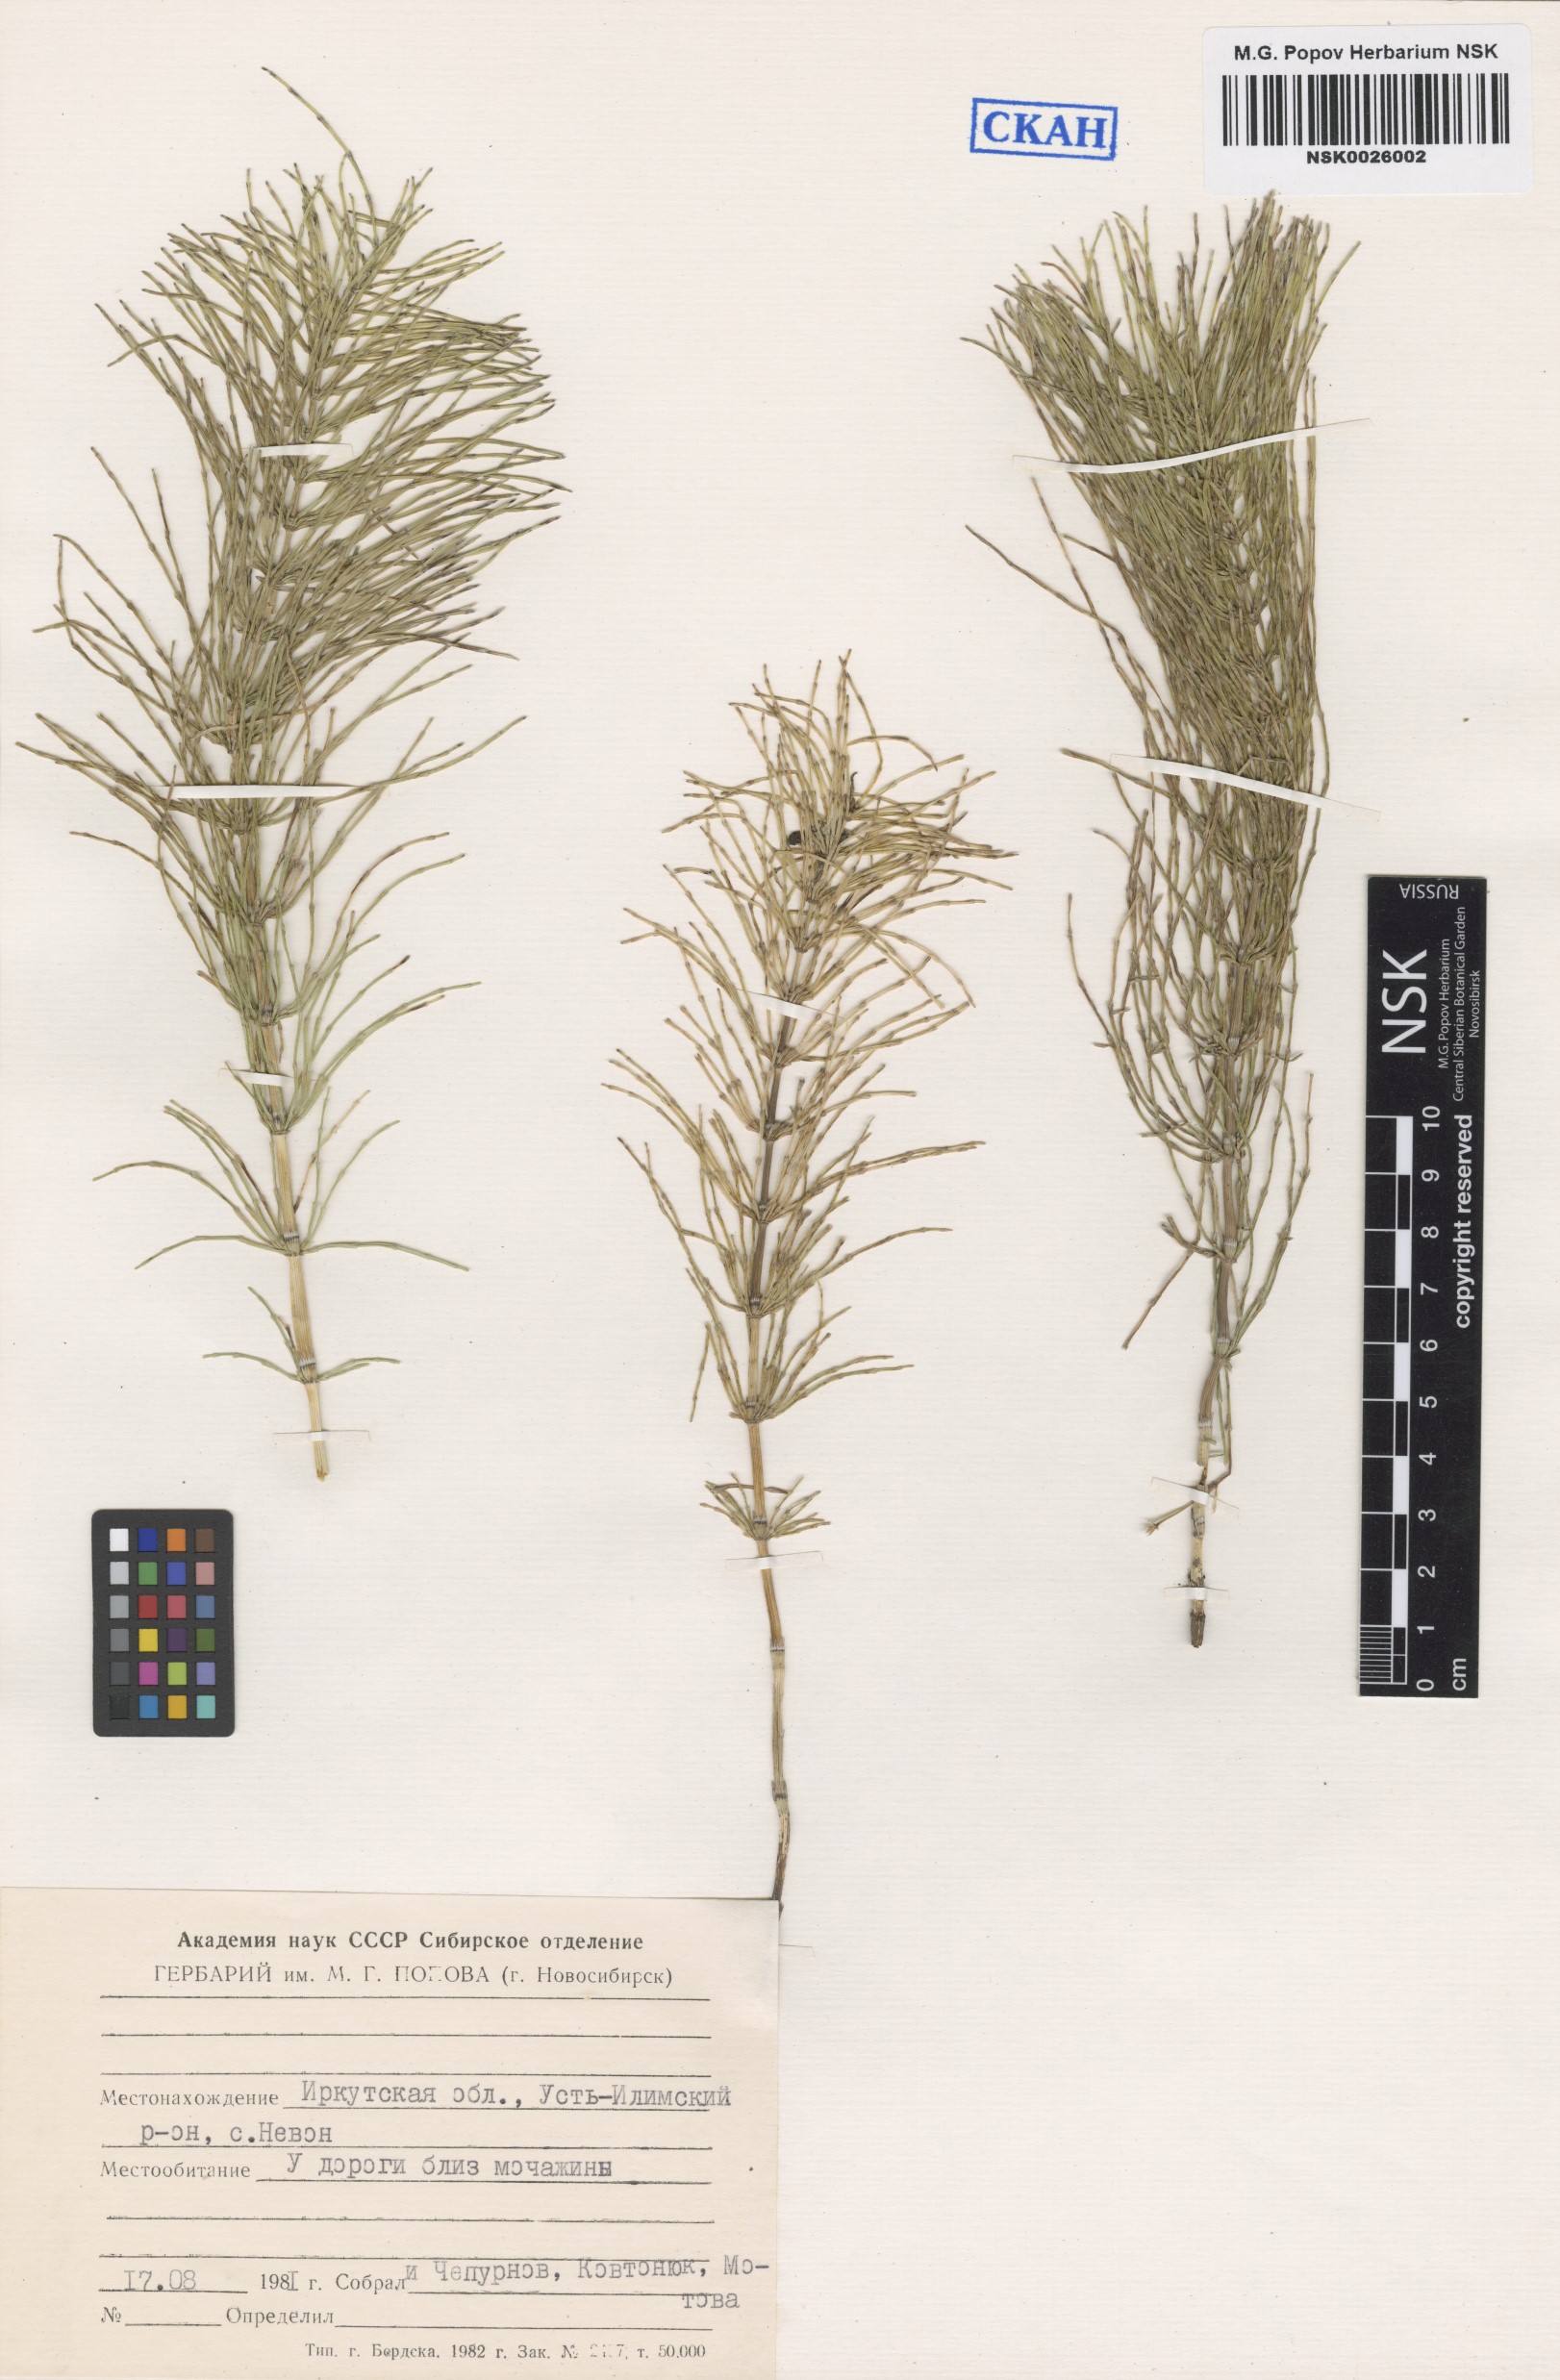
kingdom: Plantae
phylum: Tracheophyta
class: Polypodiopsida
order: Equisetales
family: Equisetaceae
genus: Equisetum
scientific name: Equisetum pratense
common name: Meadow horsetail
